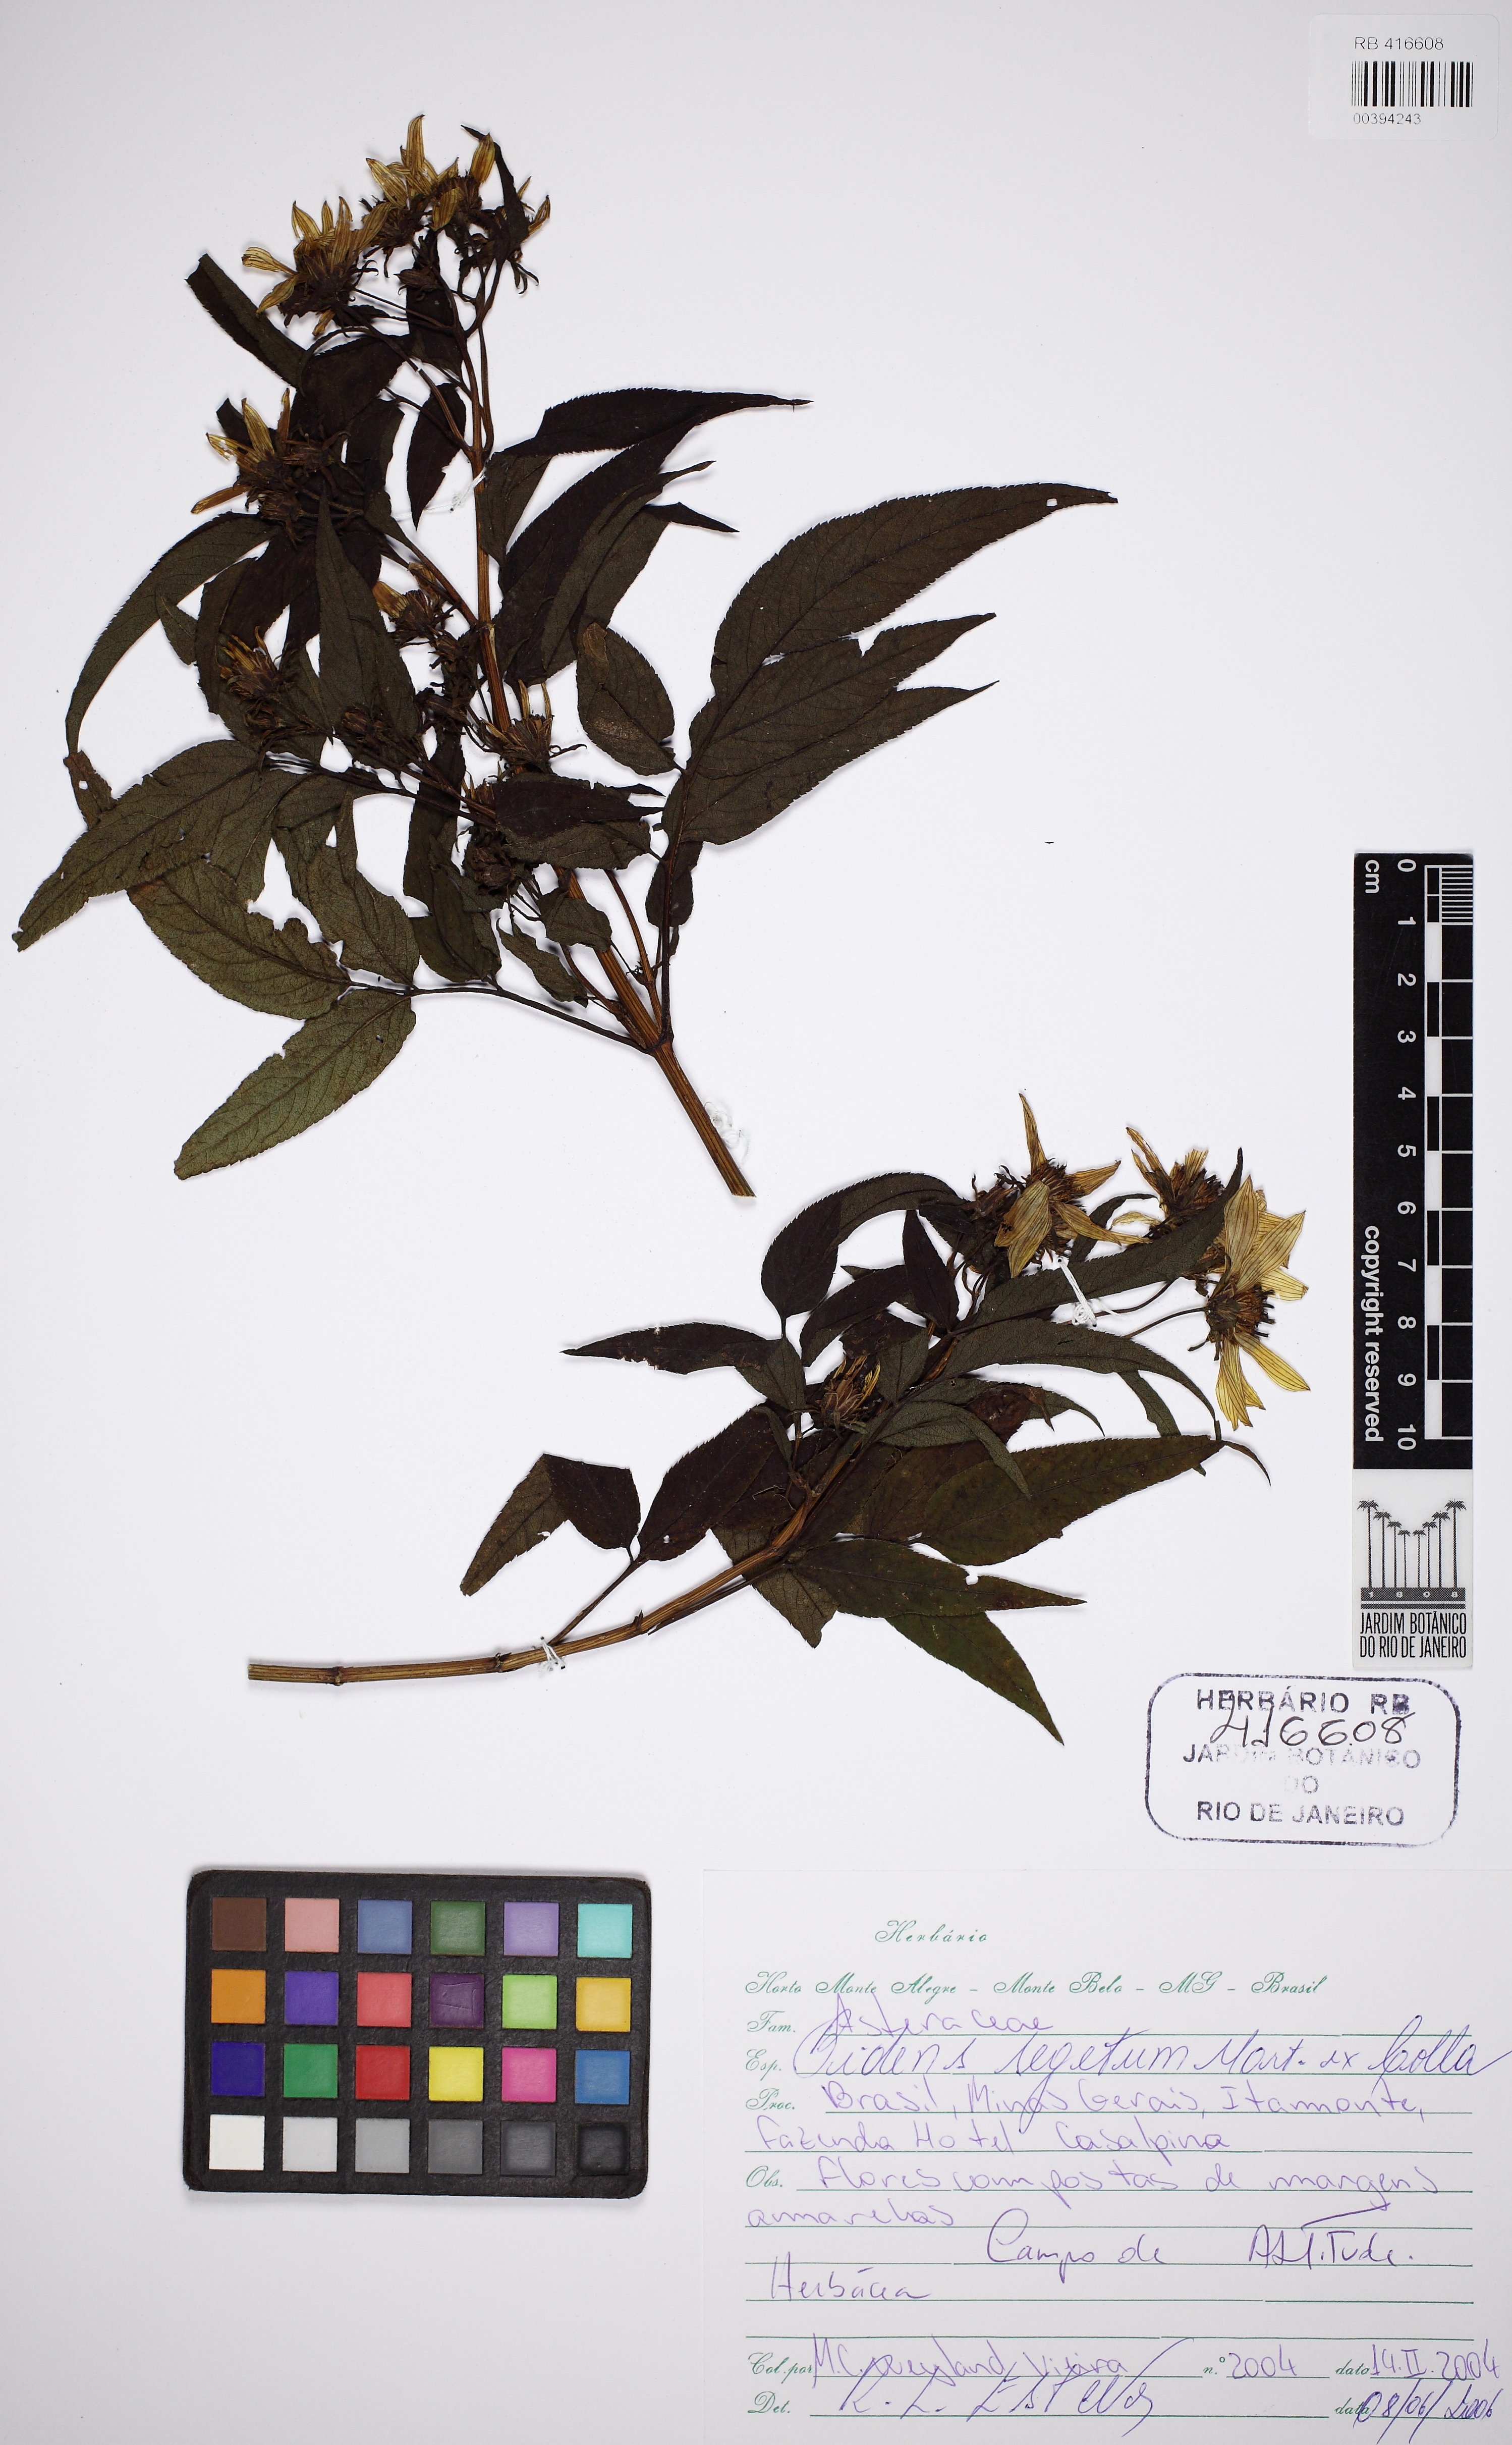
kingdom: Plantae
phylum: Tracheophyta
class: Magnoliopsida
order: Asterales
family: Asteraceae
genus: Bidens
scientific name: Bidens segetum
